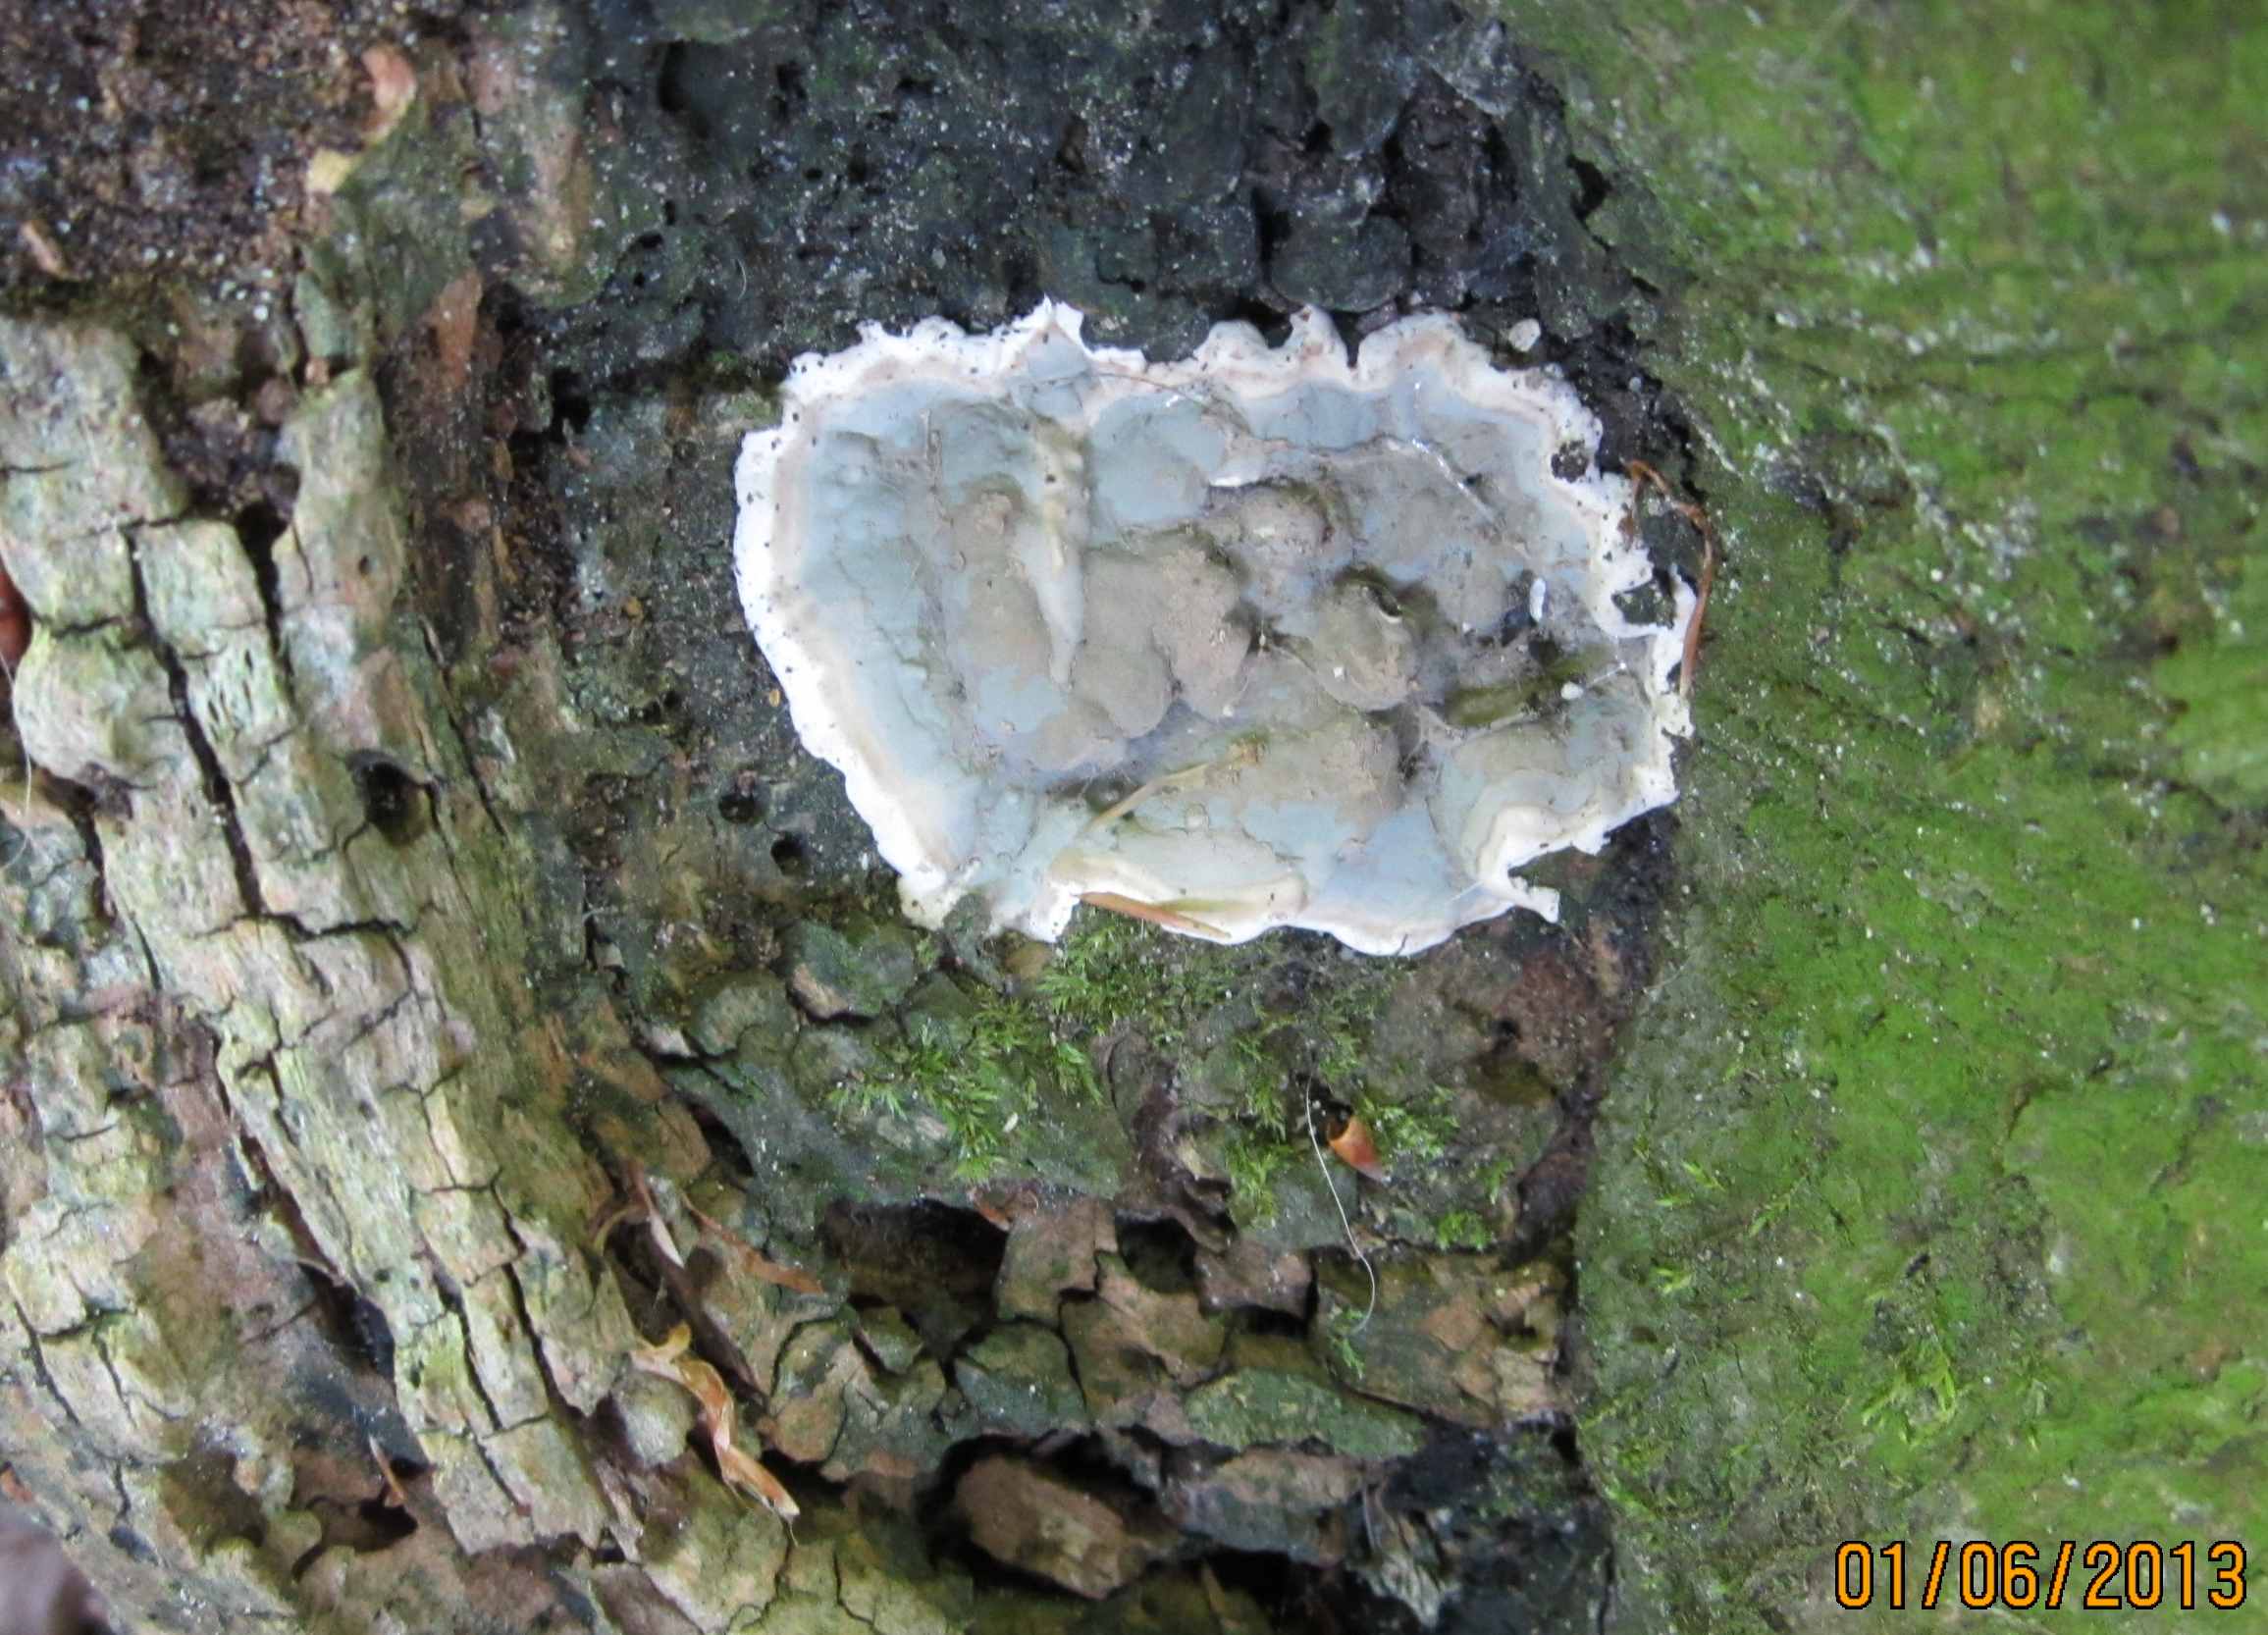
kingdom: Fungi
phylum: Ascomycota
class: Sordariomycetes
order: Xylariales
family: Xylariaceae
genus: Kretzschmaria
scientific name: Kretzschmaria deusta
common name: stor kulsvamp
